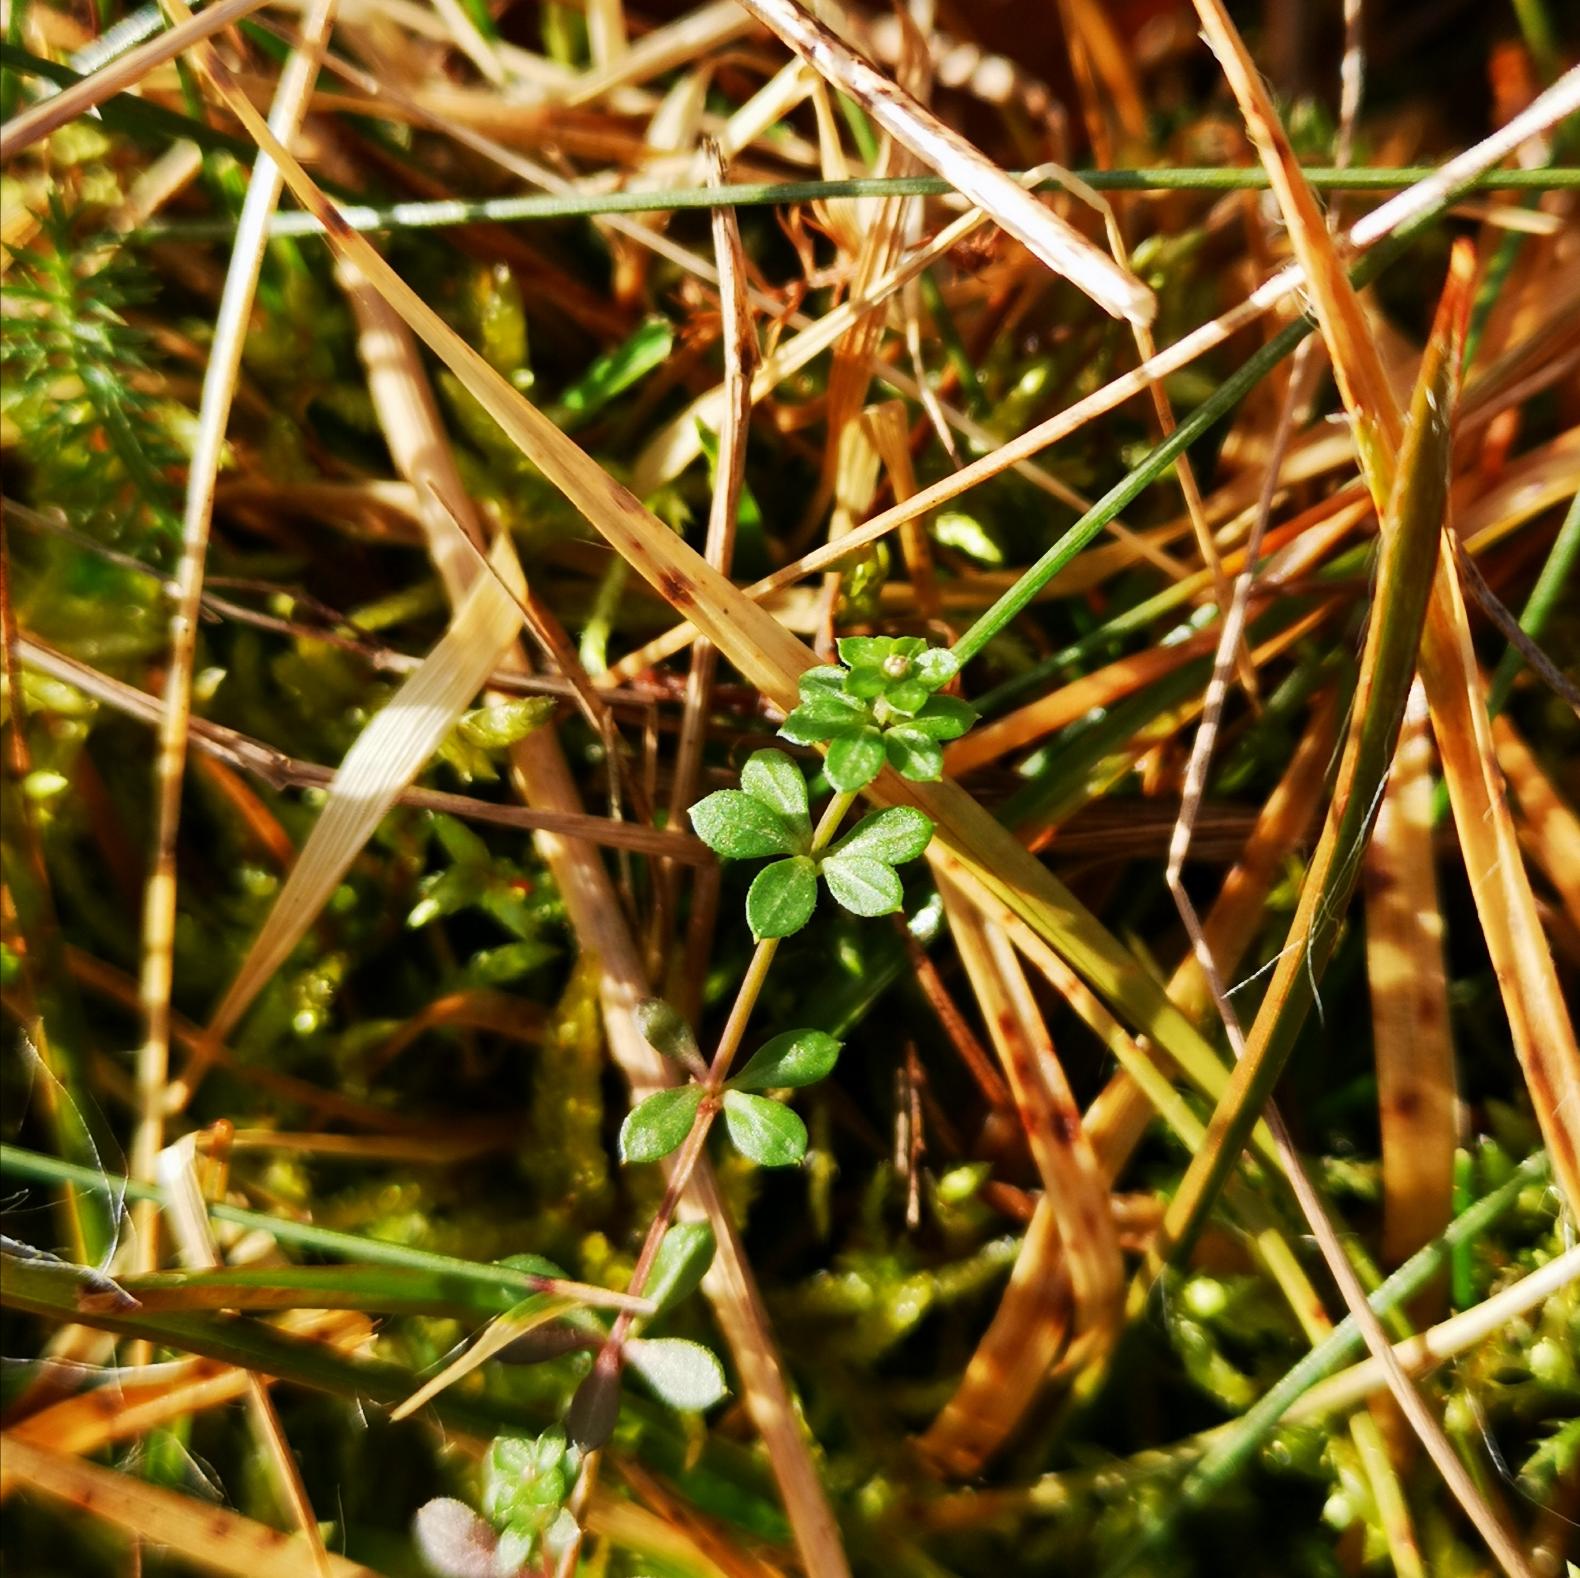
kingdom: Plantae
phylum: Tracheophyta
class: Magnoliopsida
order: Gentianales
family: Rubiaceae
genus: Galium
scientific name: Galium saxatile
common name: Lyng-snerre
